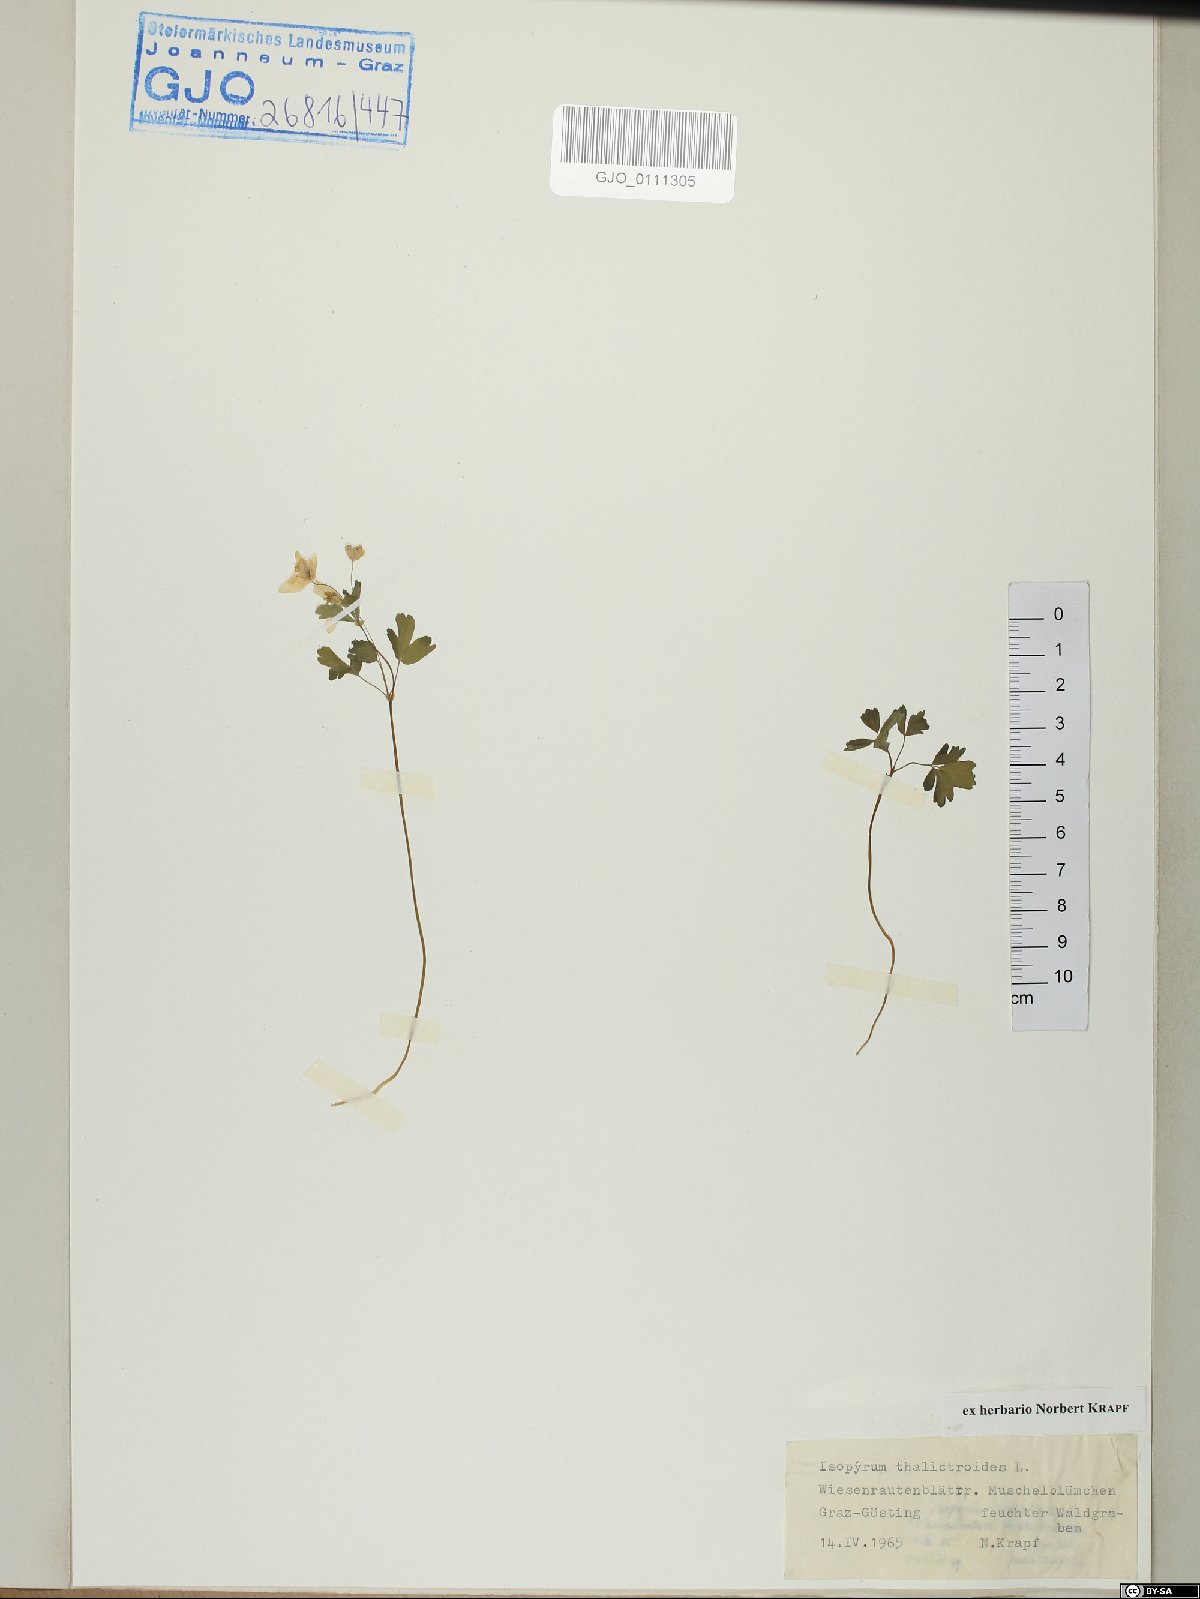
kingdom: Plantae
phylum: Tracheophyta
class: Magnoliopsida
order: Ranunculales
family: Ranunculaceae
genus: Isopyrum
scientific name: Isopyrum thalictroides
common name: Isopyrum
